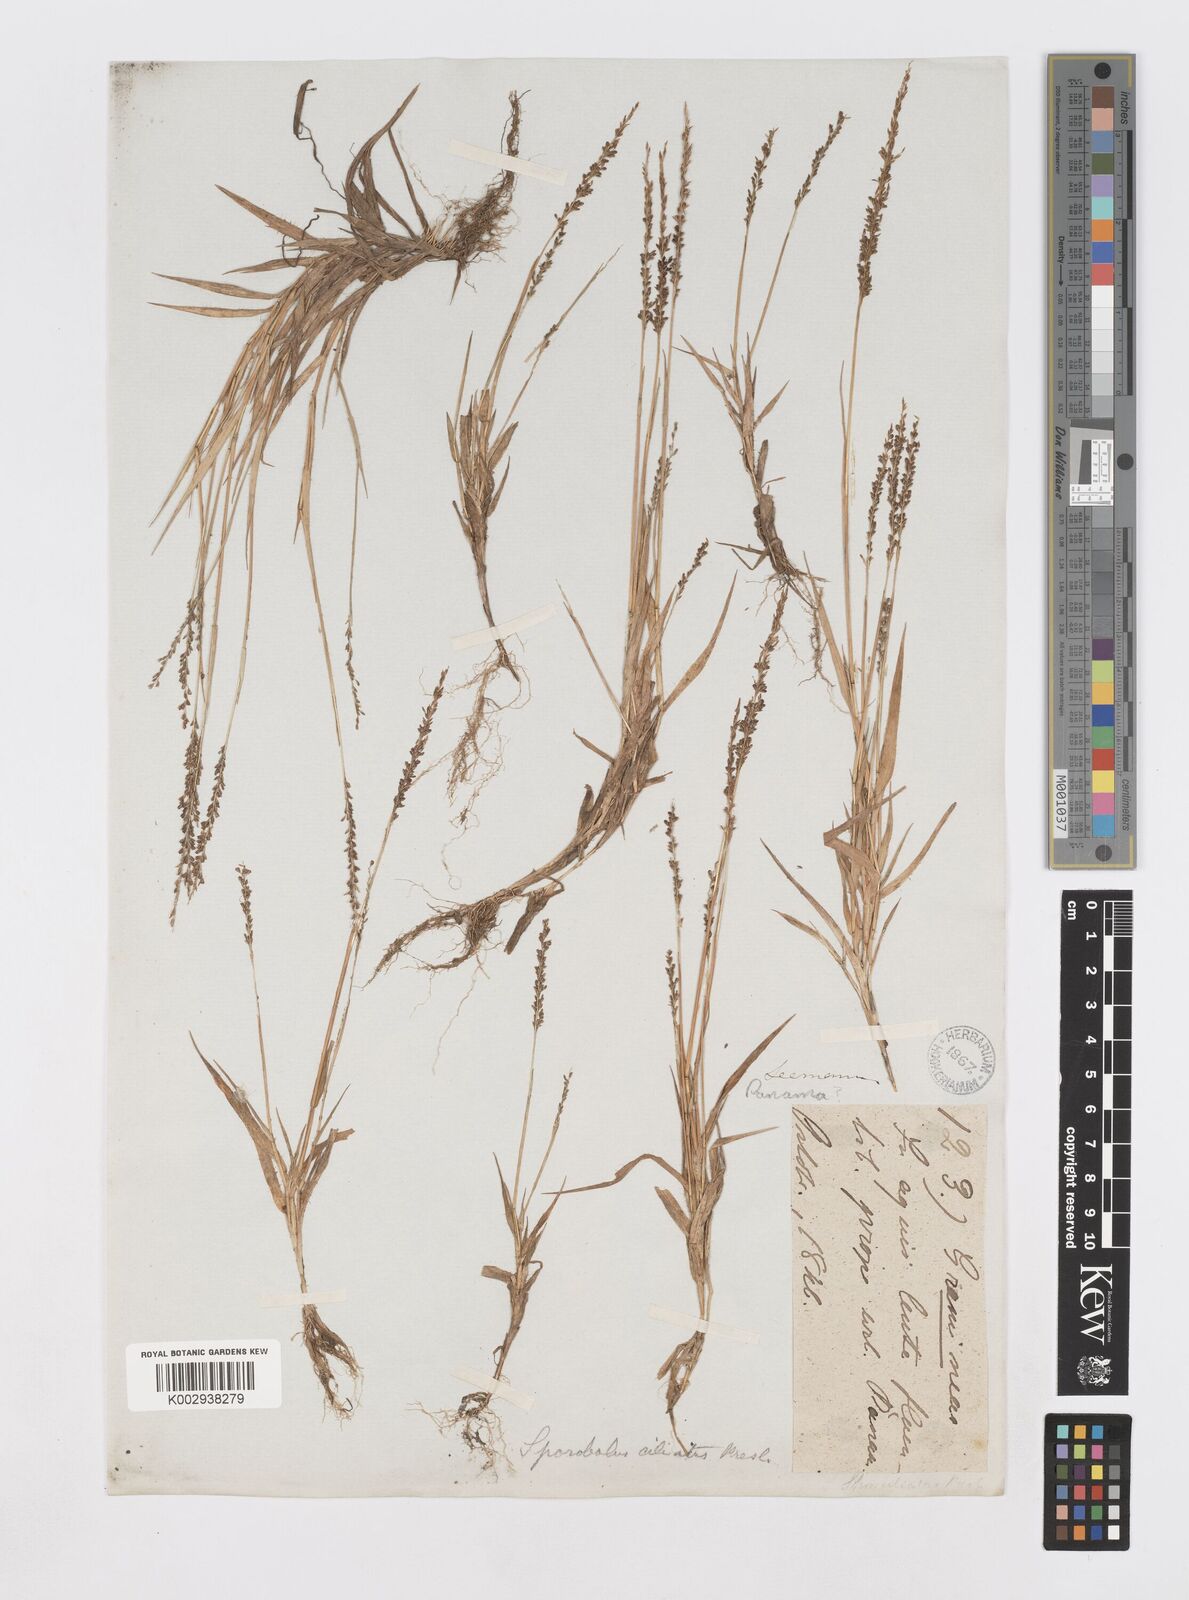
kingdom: Plantae
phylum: Tracheophyta
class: Liliopsida
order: Poales
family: Poaceae
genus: Sporobolus
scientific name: Sporobolus pilifer
